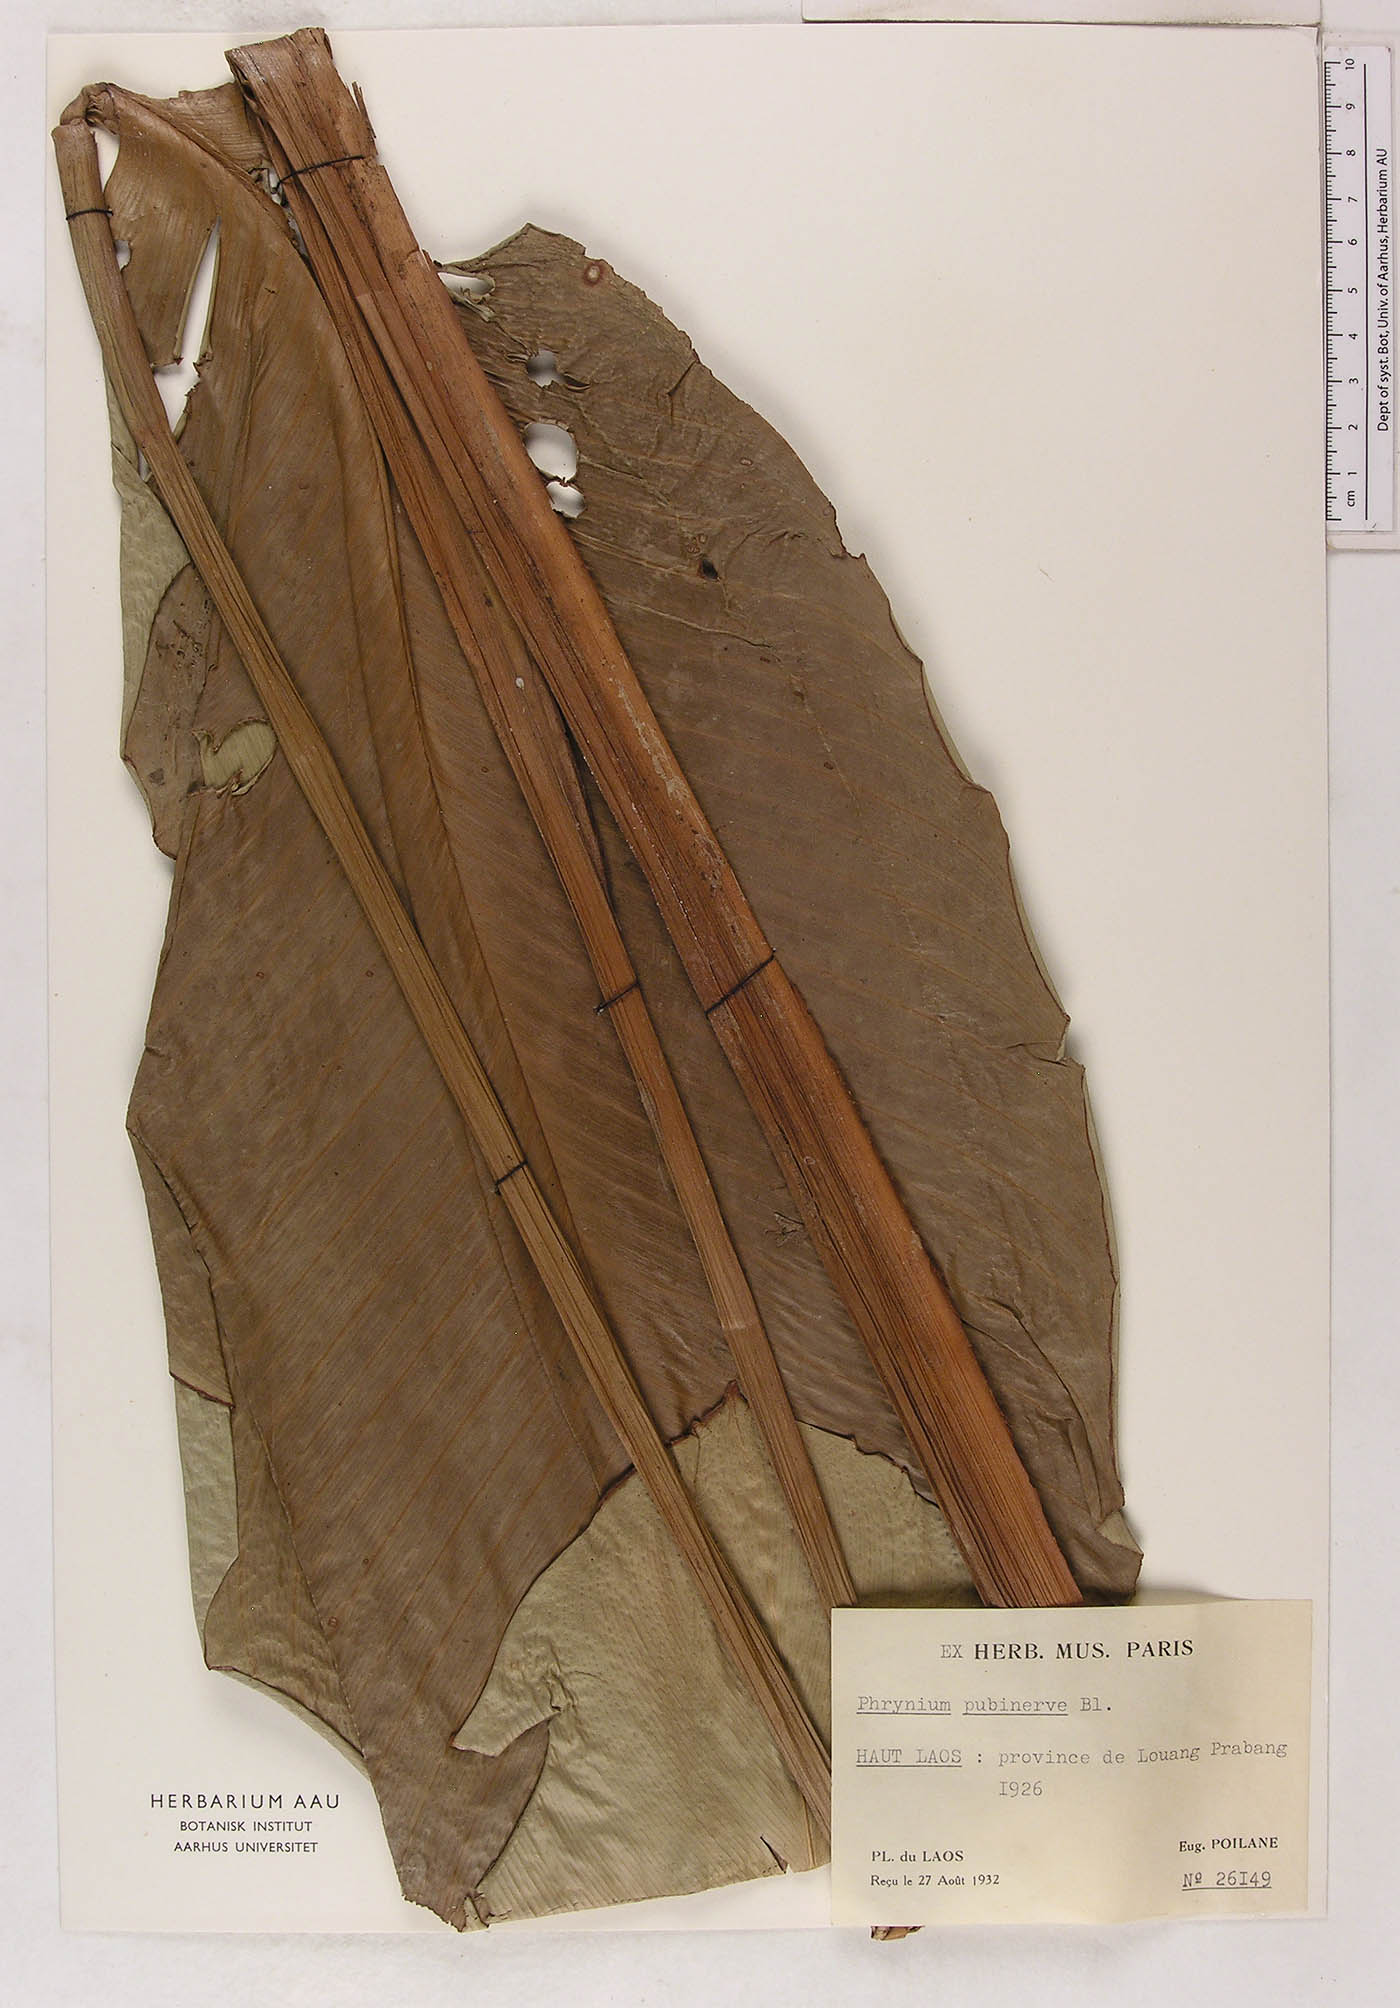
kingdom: Plantae
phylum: Tracheophyta
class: Liliopsida
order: Zingiberales
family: Marantaceae
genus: Phrynium
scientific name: Phrynium pubinerve
